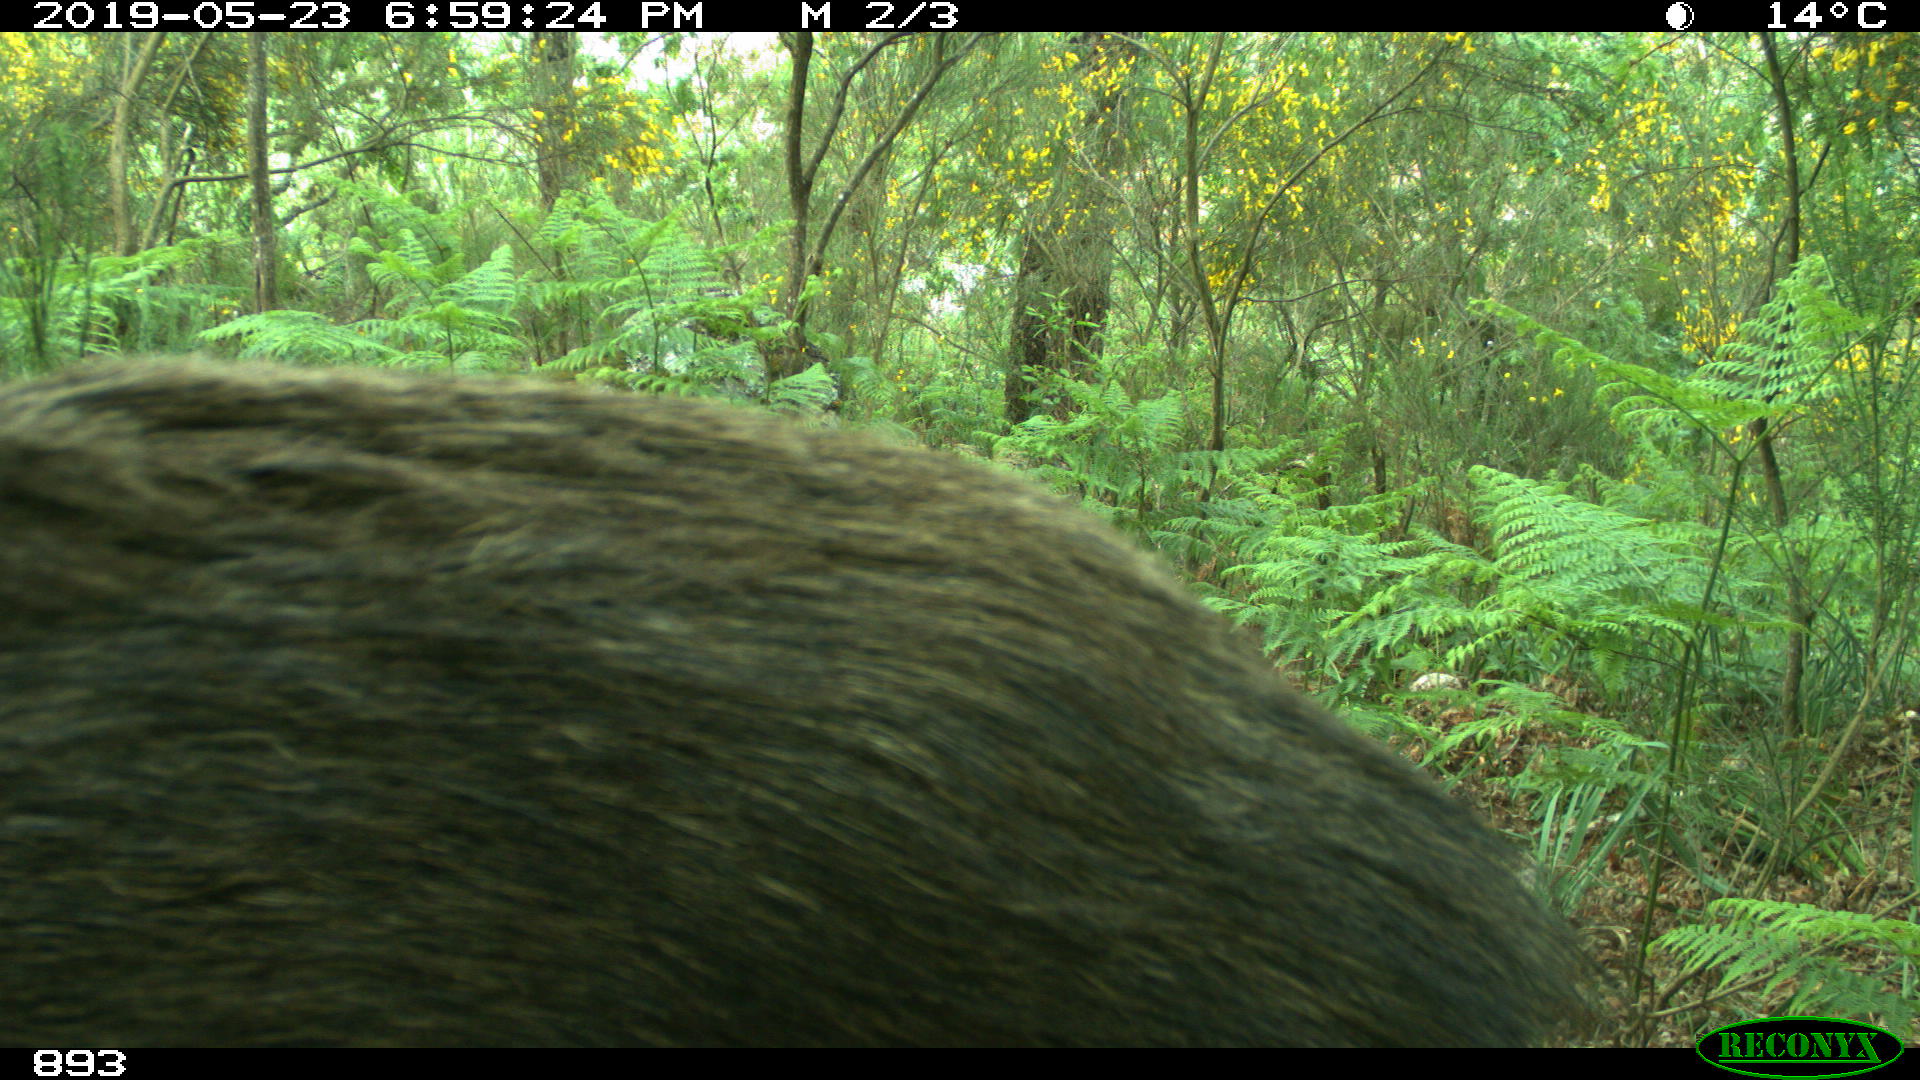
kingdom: Animalia
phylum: Chordata
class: Mammalia
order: Artiodactyla
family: Suidae
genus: Sus
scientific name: Sus scrofa
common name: Wild boar
